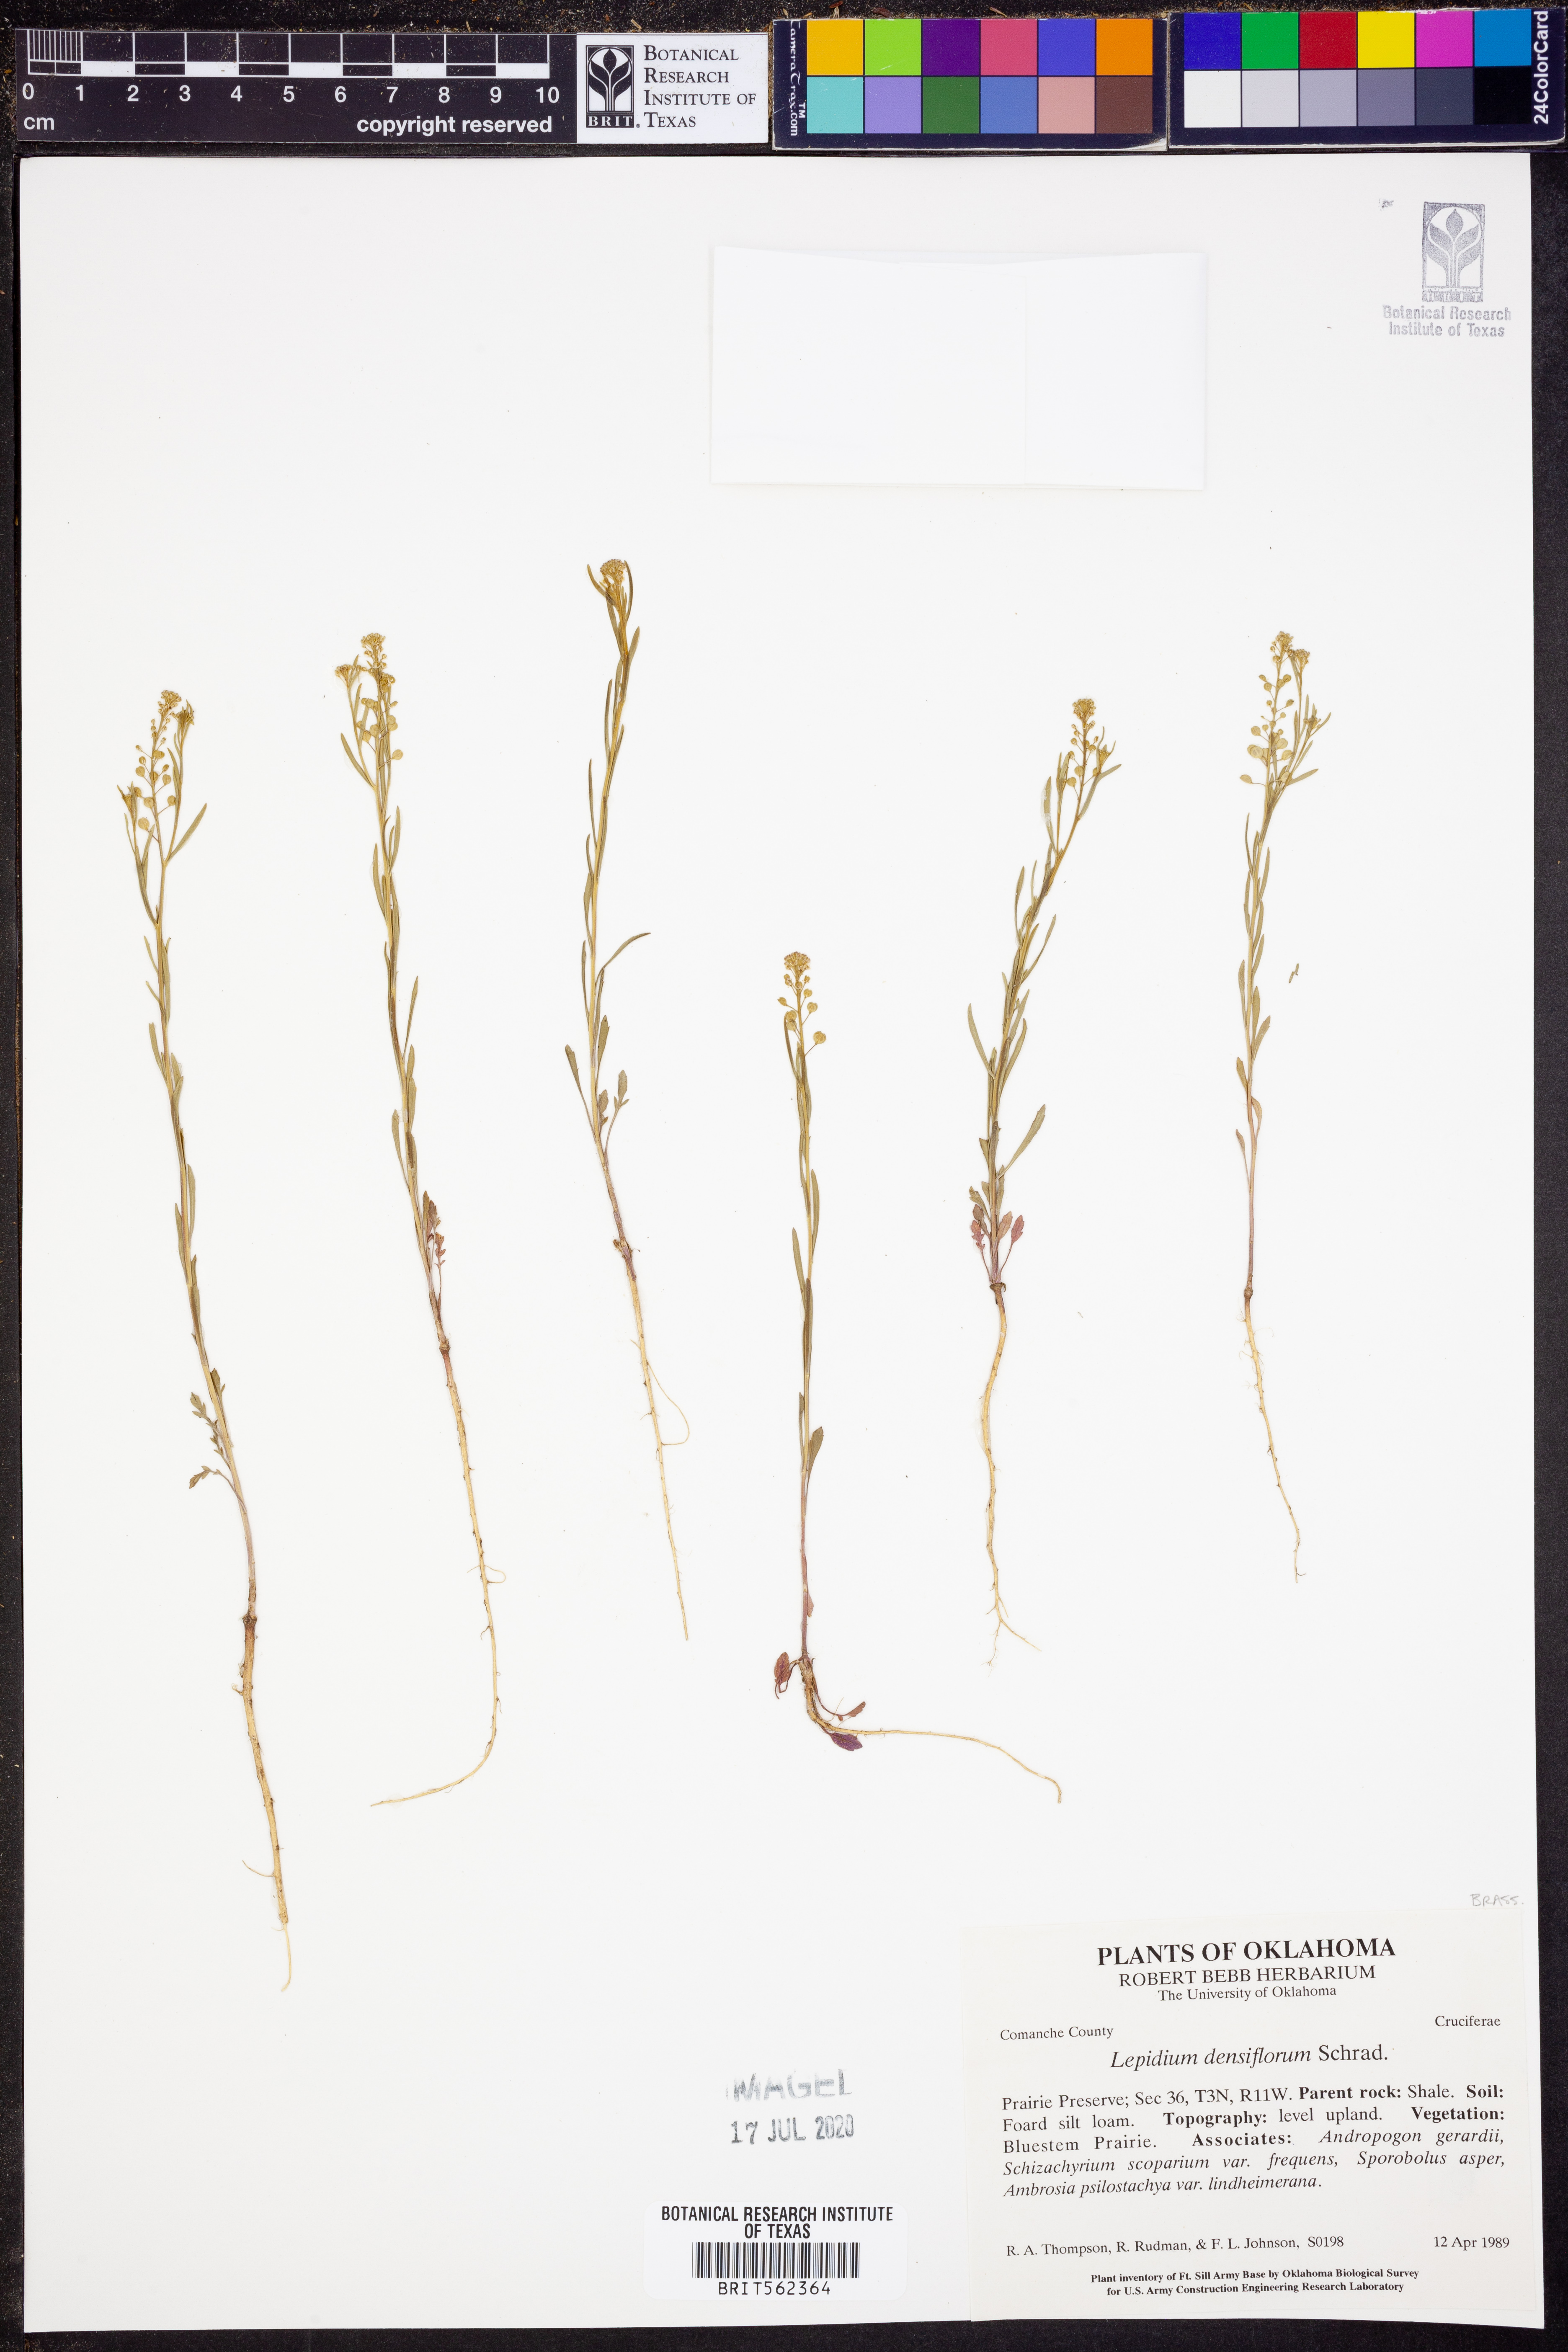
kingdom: Plantae
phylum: Tracheophyta
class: Magnoliopsida
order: Brassicales
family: Brassicaceae
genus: Lepidium
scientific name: Lepidium densiflorum
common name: Miner's pepperwort
